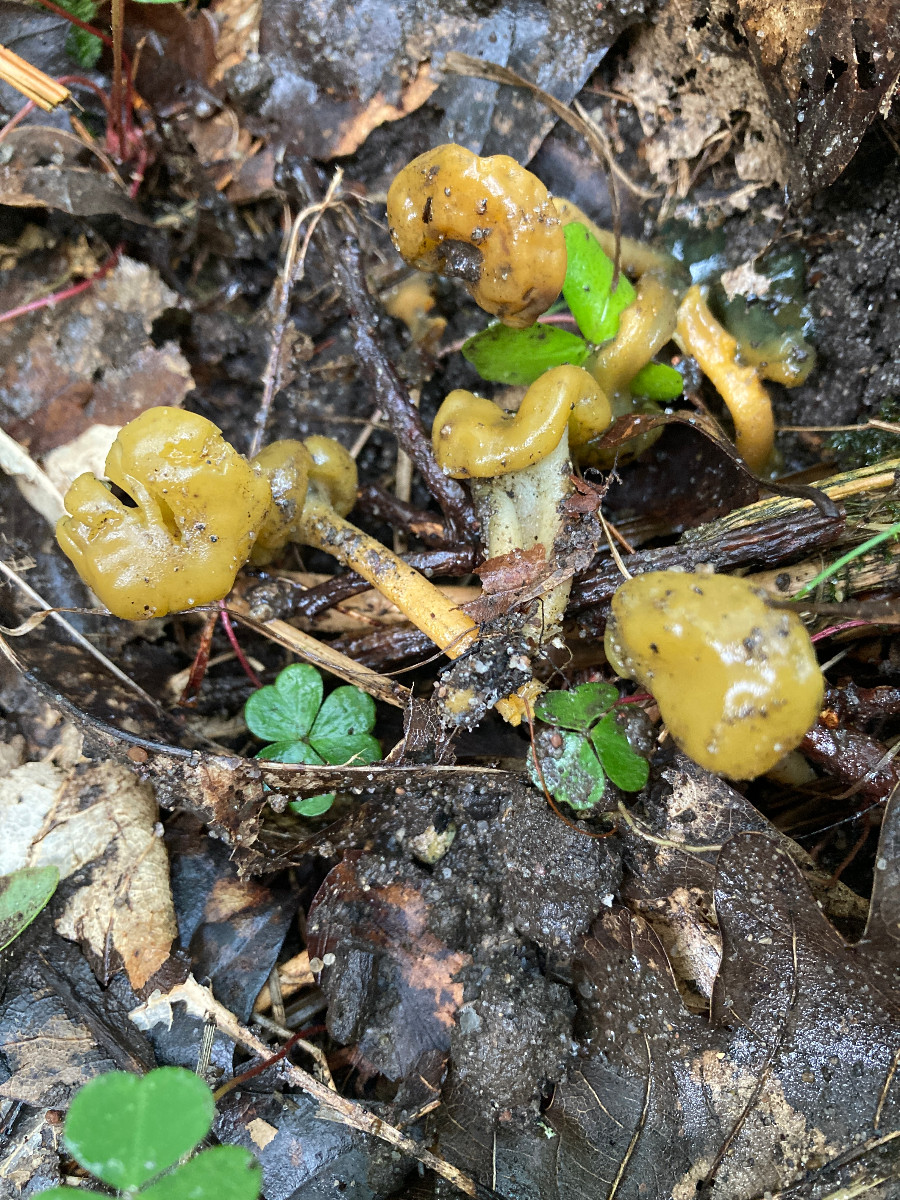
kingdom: Fungi
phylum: Ascomycota
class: Leotiomycetes
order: Leotiales
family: Leotiaceae
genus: Leotia
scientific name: Leotia lubrica
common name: ravsvamp
